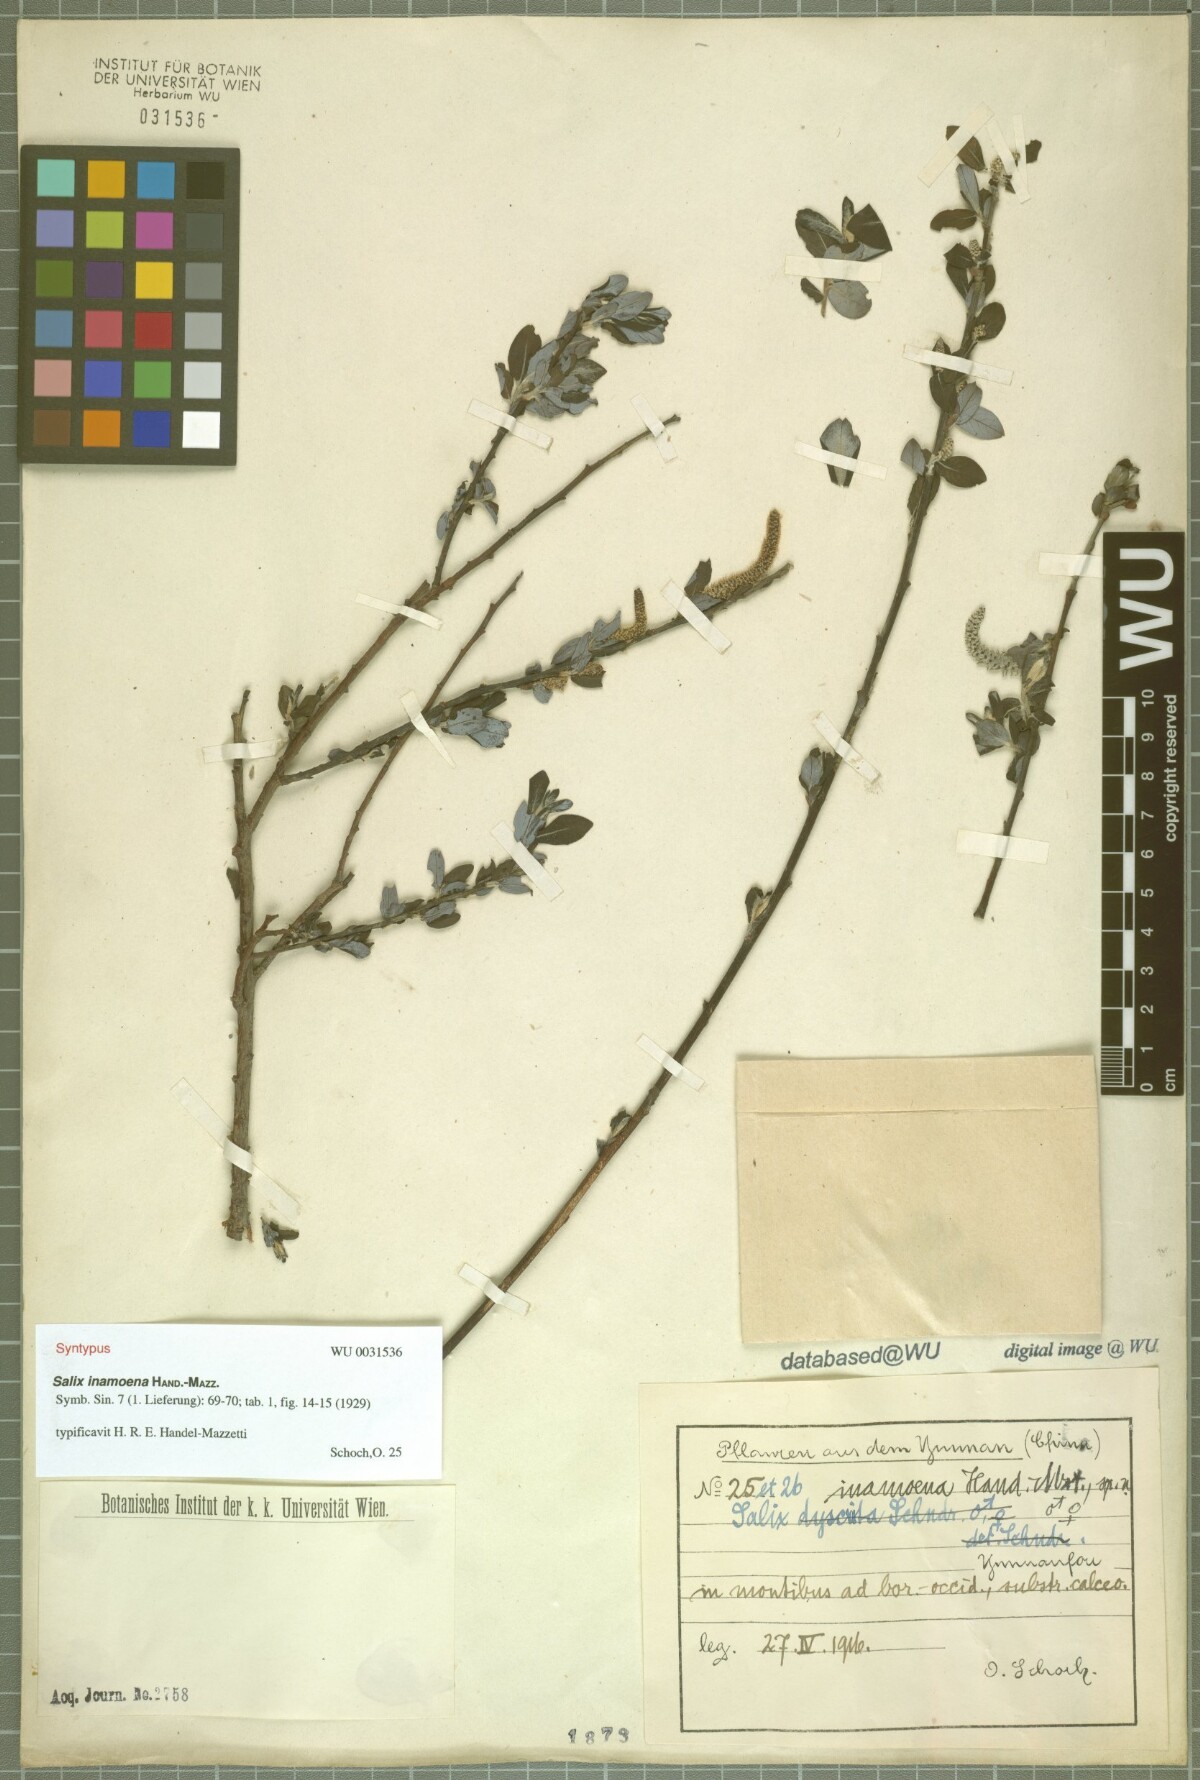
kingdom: Plantae
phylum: Tracheophyta
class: Magnoliopsida
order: Malpighiales
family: Salicaceae
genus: Salix
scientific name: Salix inamoena
